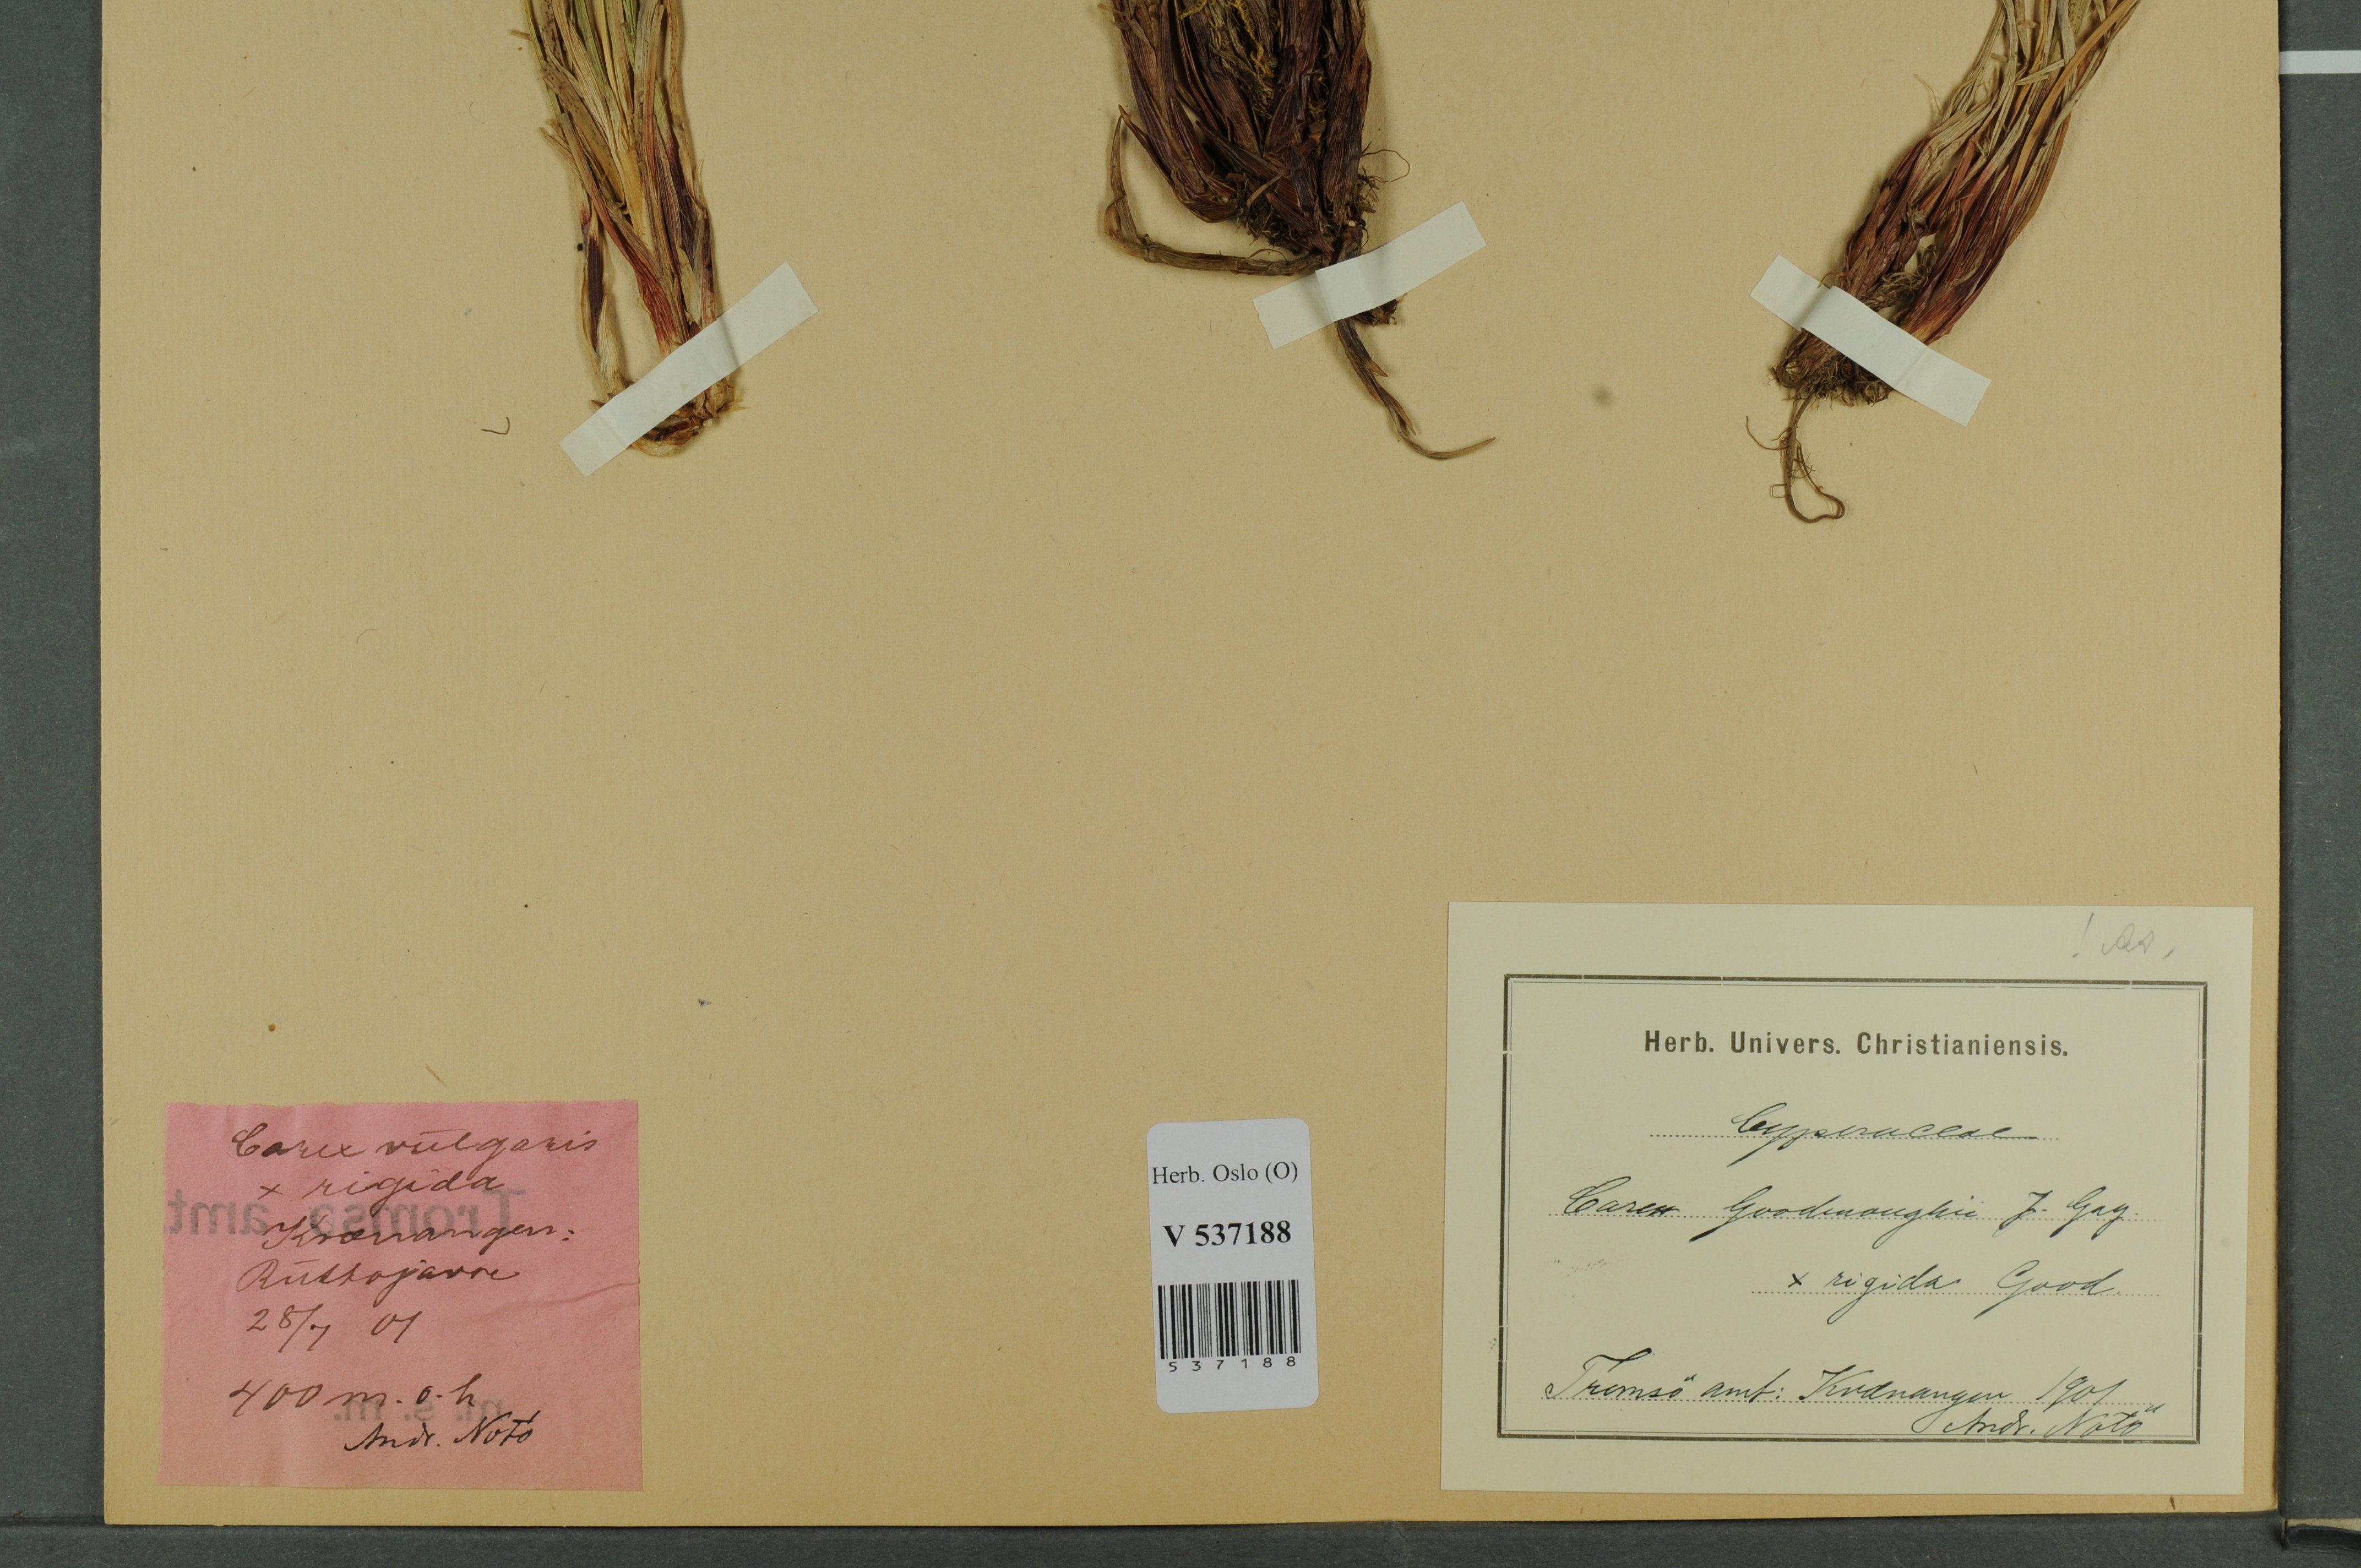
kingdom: Plantae
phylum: Tracheophyta
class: Liliopsida
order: Poales
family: Cyperaceae
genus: Carex
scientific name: Carex
